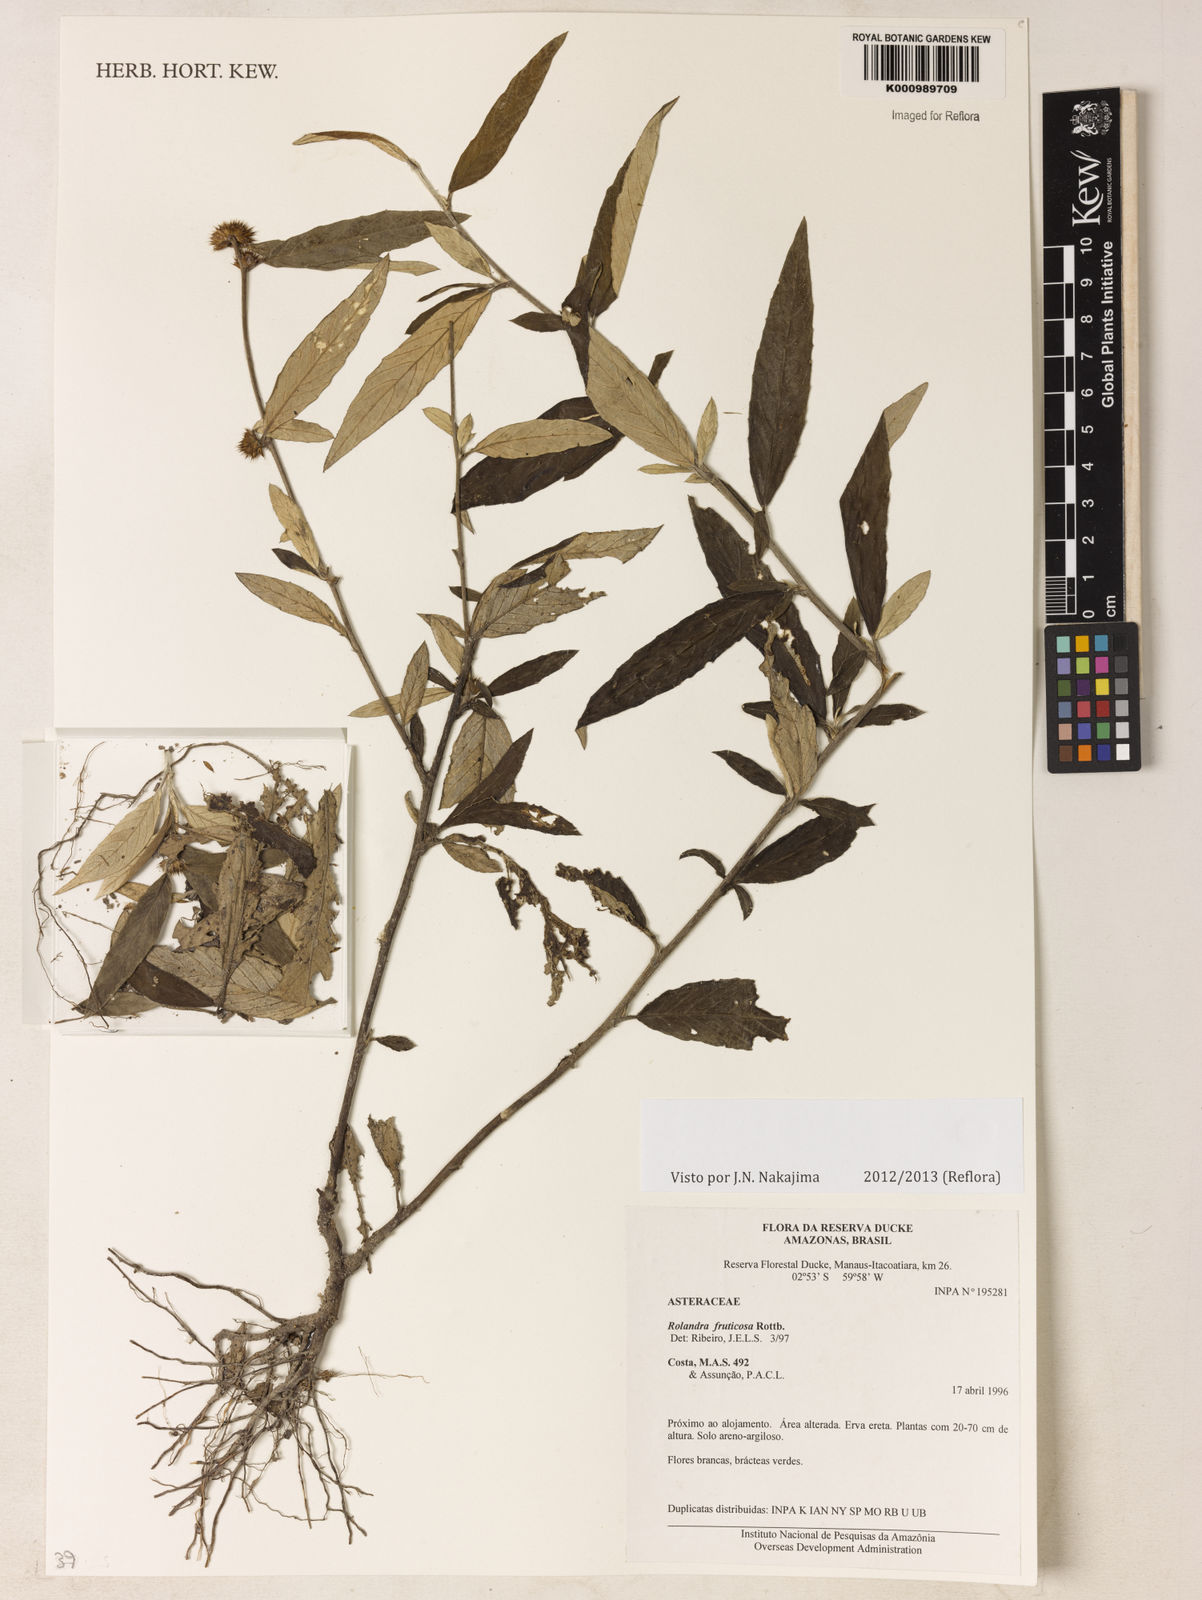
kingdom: Plantae
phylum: Tracheophyta
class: Magnoliopsida
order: Asterales
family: Asteraceae
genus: Rolandra
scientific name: Rolandra fruticosa
